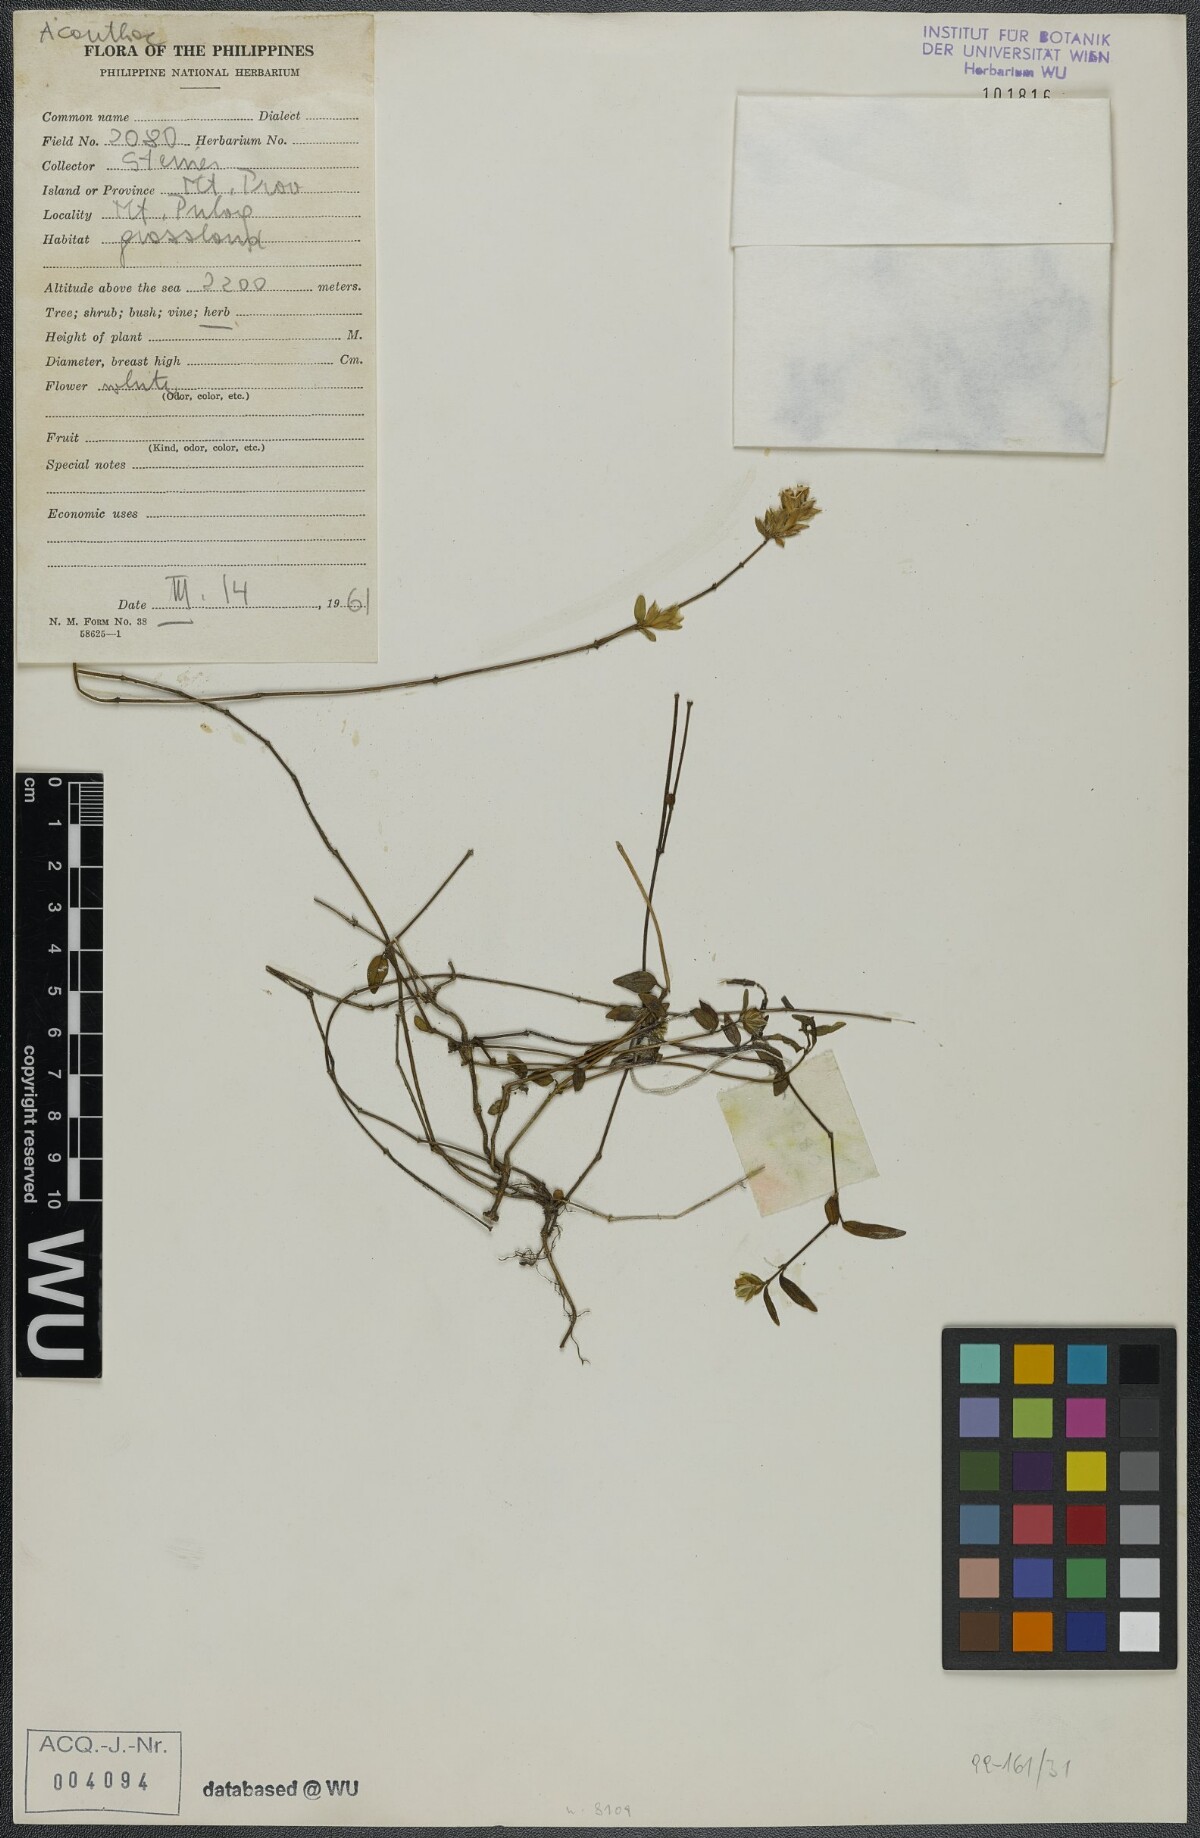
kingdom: Plantae
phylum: Tracheophyta
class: Magnoliopsida
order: Lamiales
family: Acanthaceae
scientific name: Acanthaceae
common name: Acanthaceae
